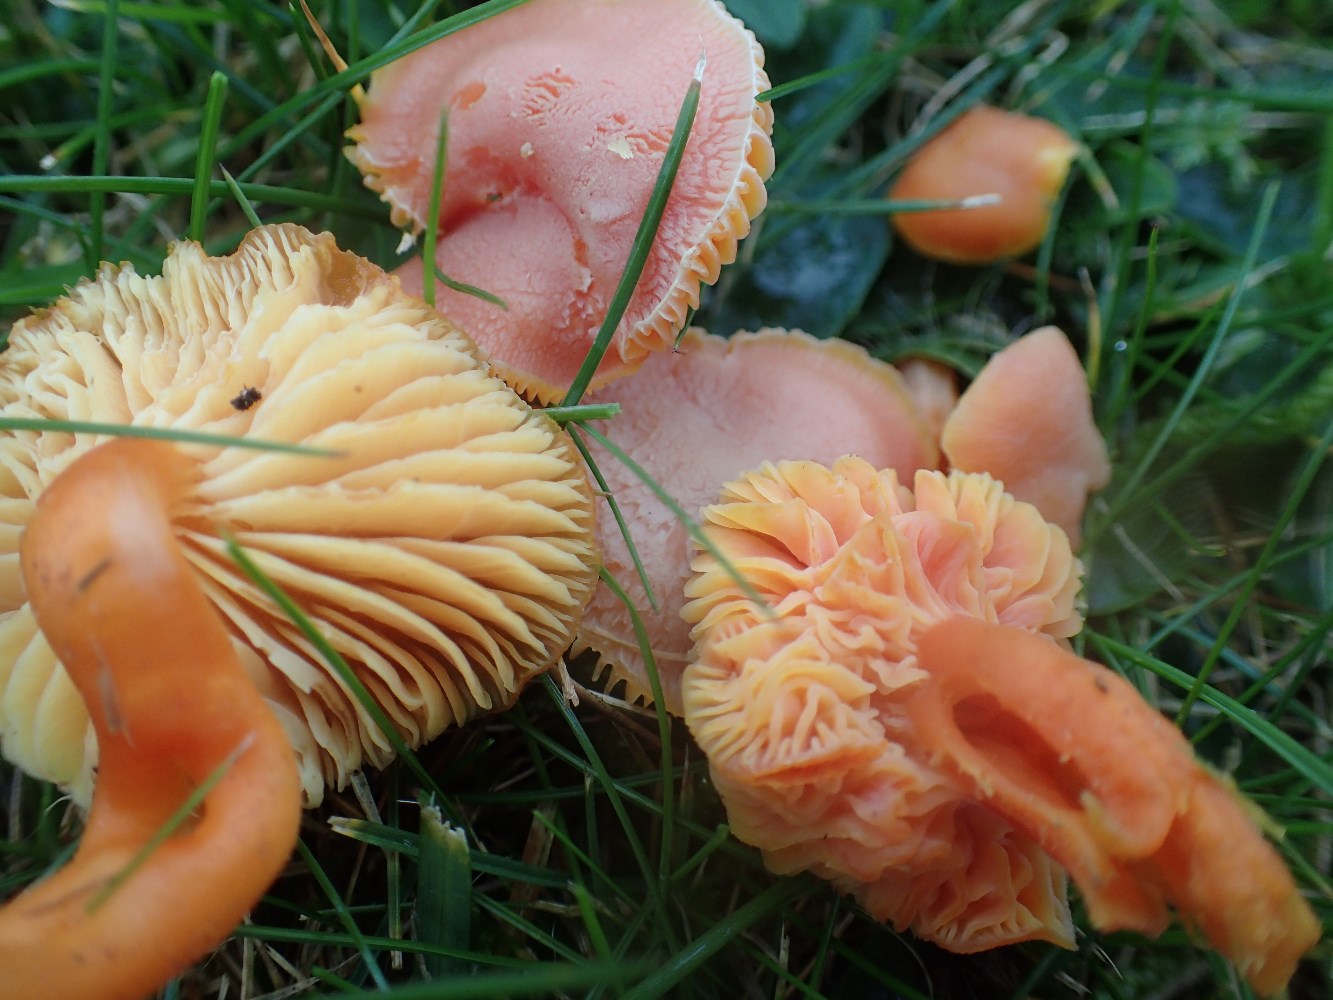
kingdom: Fungi
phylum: Basidiomycota
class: Agaricomycetes
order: Agaricales
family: Hygrophoraceae
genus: Hygrocybe
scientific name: Hygrocybe reidii
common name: honning-vokshat
